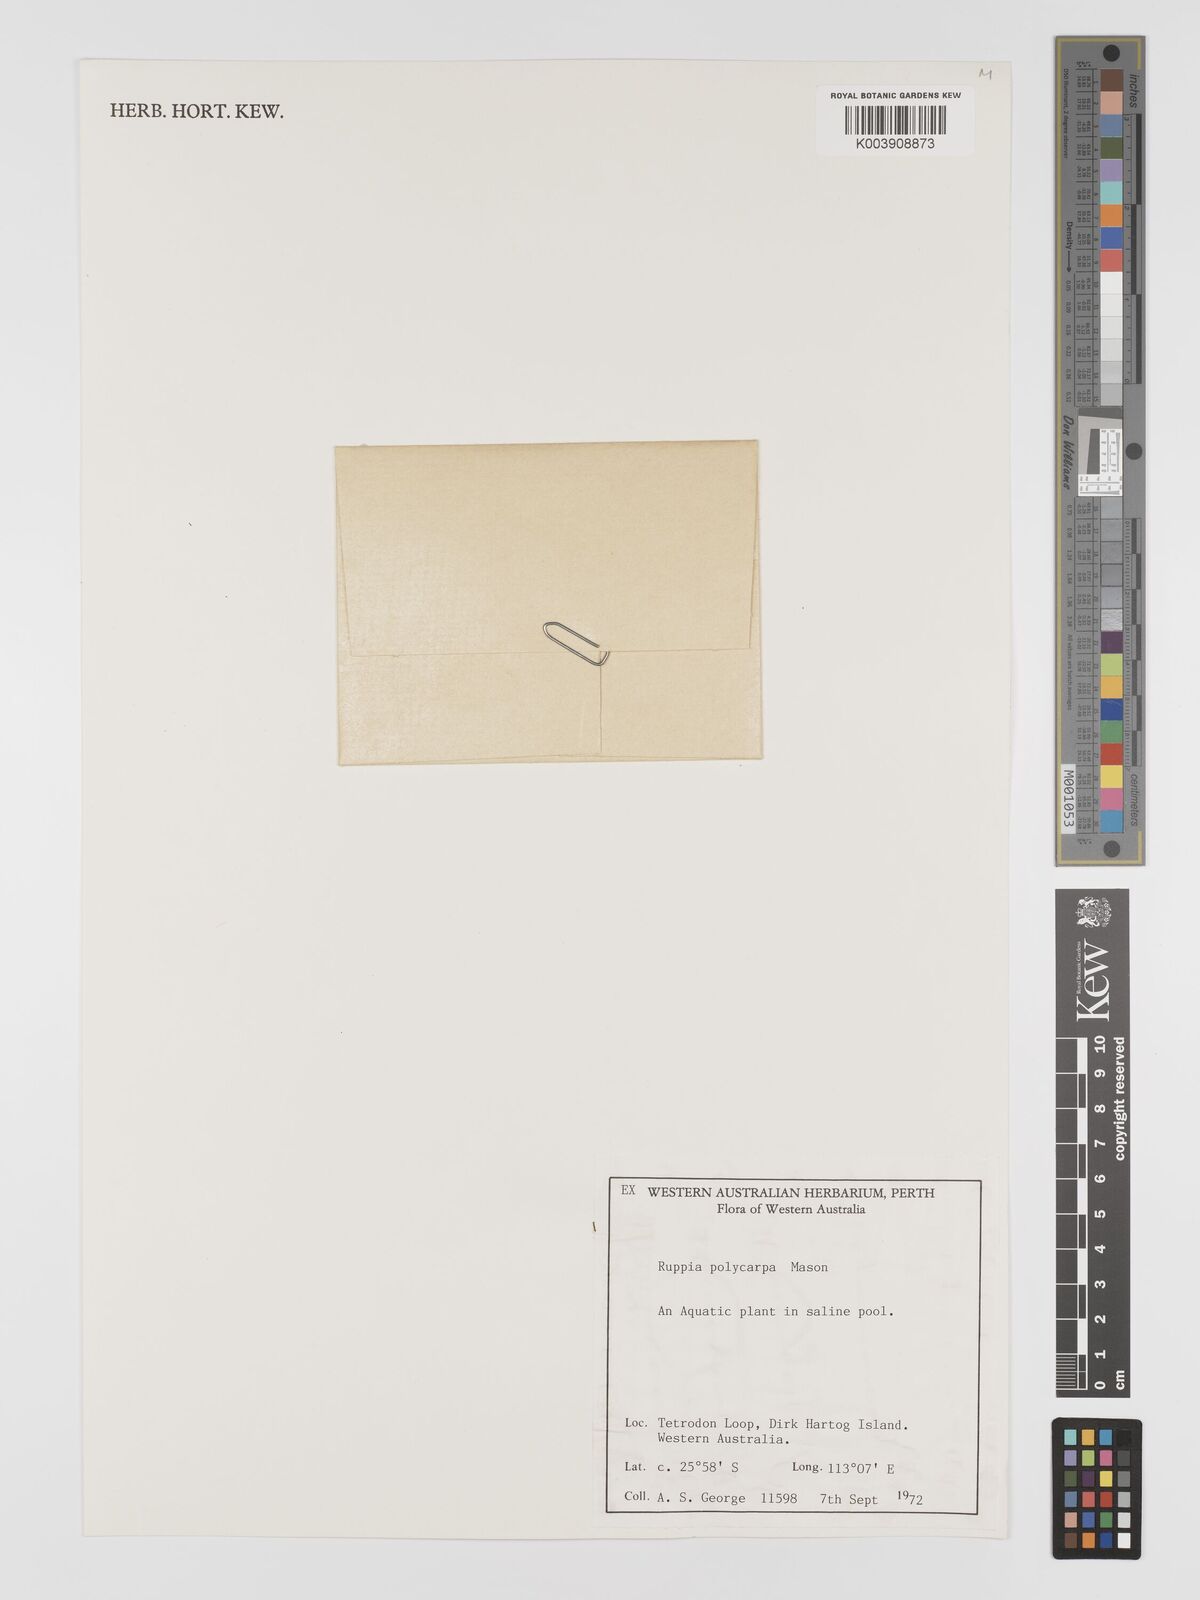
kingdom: Plantae
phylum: Tracheophyta
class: Liliopsida
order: Alismatales
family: Ruppiaceae
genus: Ruppia
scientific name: Ruppia polycarpa
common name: Species code: rp
